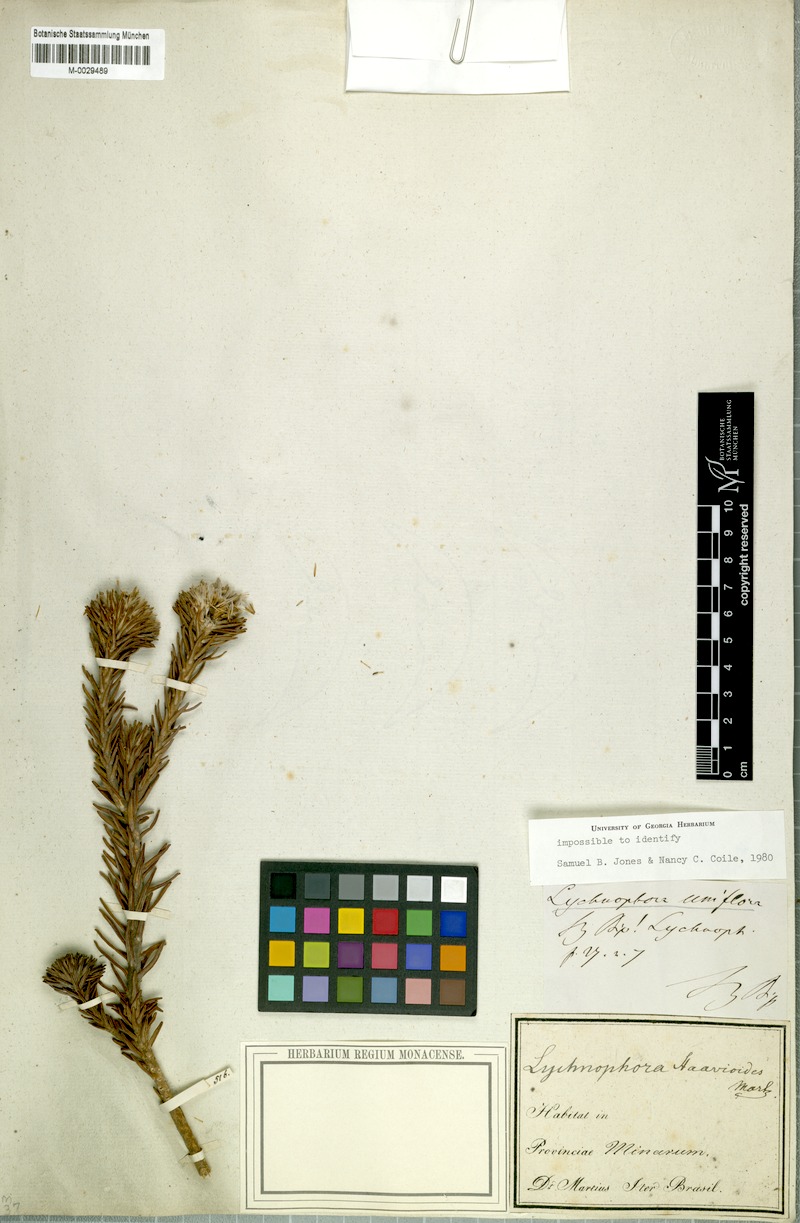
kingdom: Plantae
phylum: Tracheophyta
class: Magnoliopsida
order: Asterales
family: Asteraceae
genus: Lychnophora
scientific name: Lychnophora uniflora
